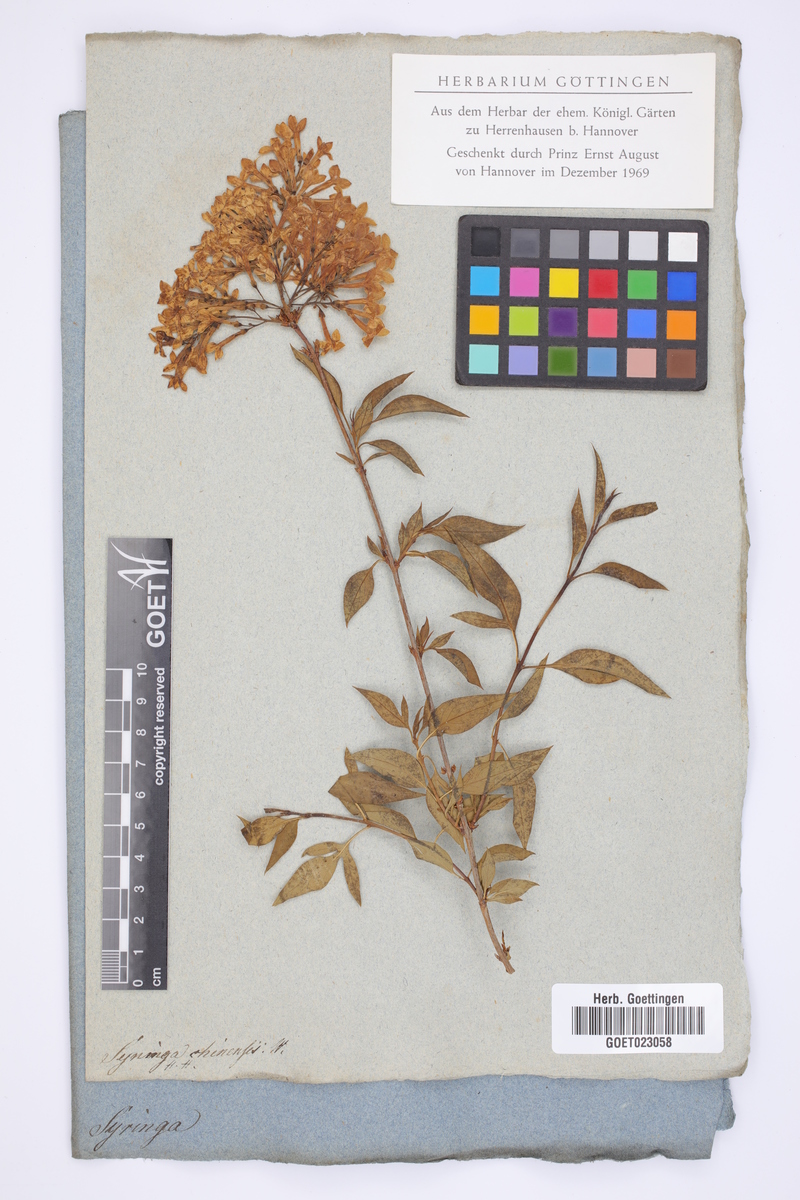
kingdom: Plantae
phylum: Tracheophyta
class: Magnoliopsida
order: Lamiales
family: Oleaceae
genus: Syringa
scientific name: Syringa chinensis
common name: Chinese lilac
